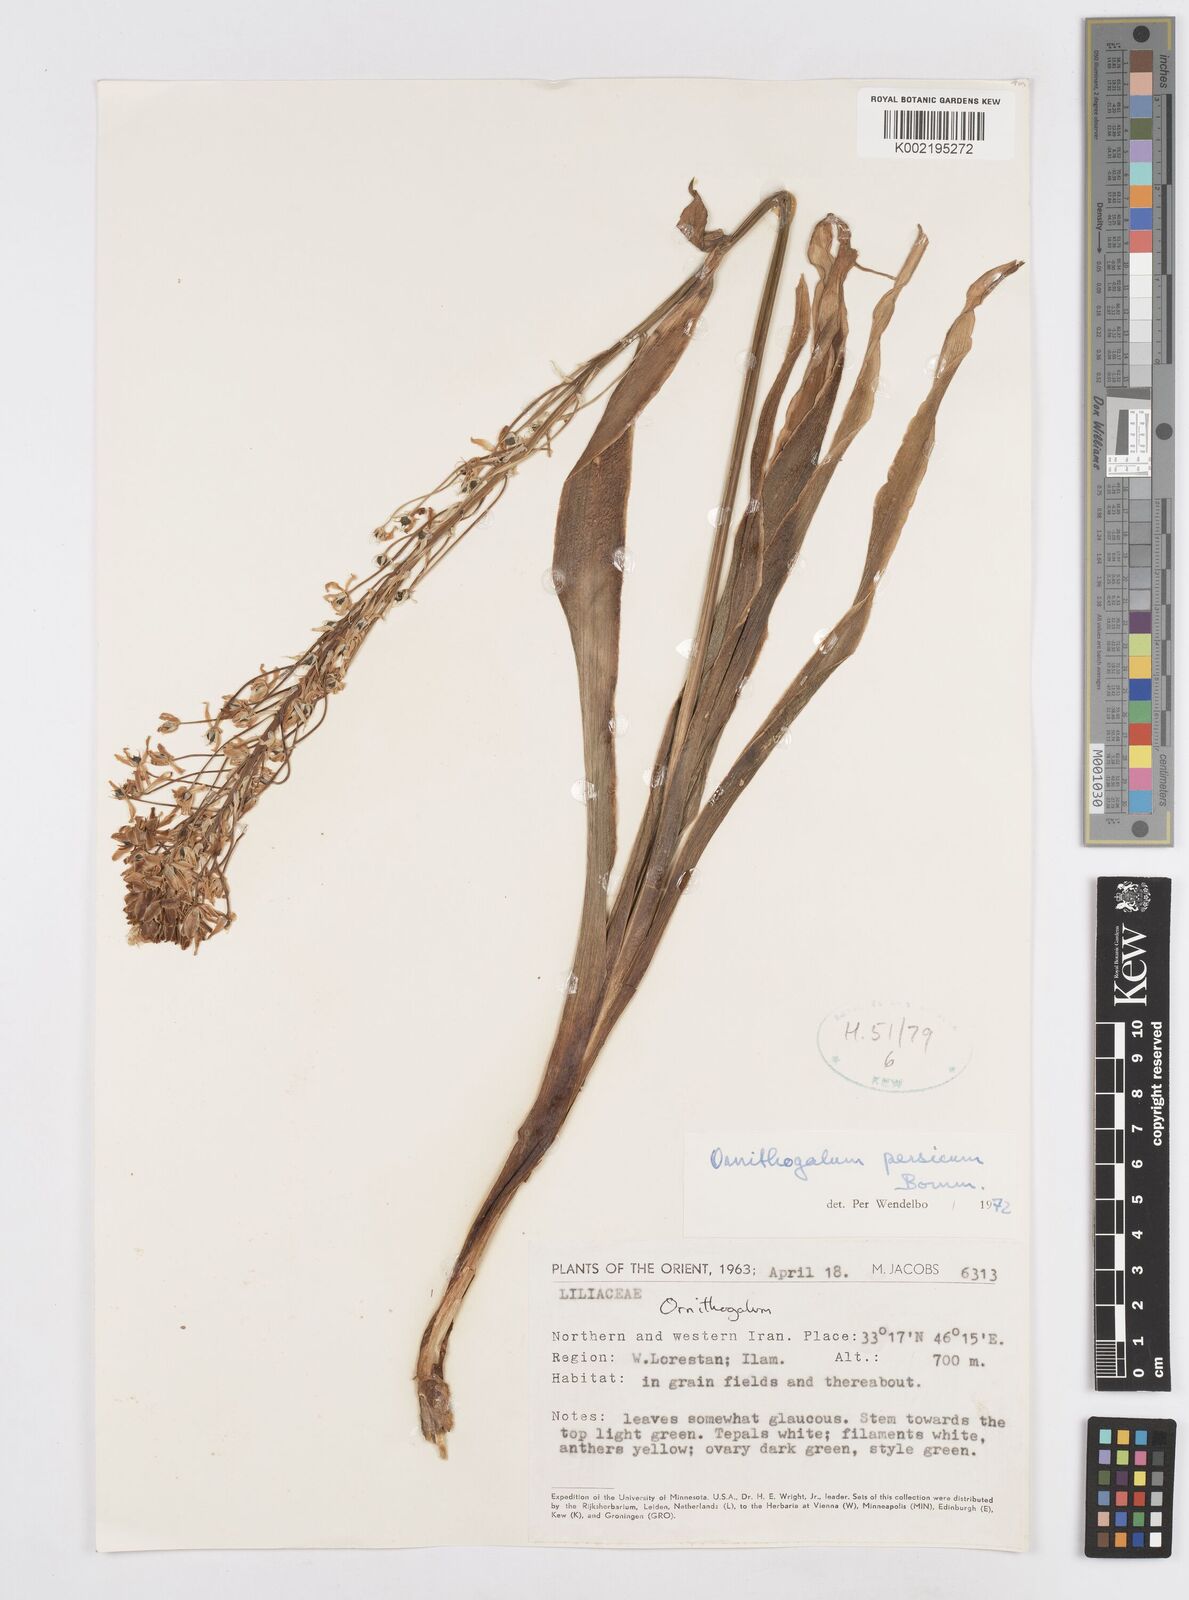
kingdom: Plantae
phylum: Tracheophyta
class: Liliopsida
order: Asparagales
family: Asparagaceae
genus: Ornithogalum
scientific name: Ornithogalum persicum
